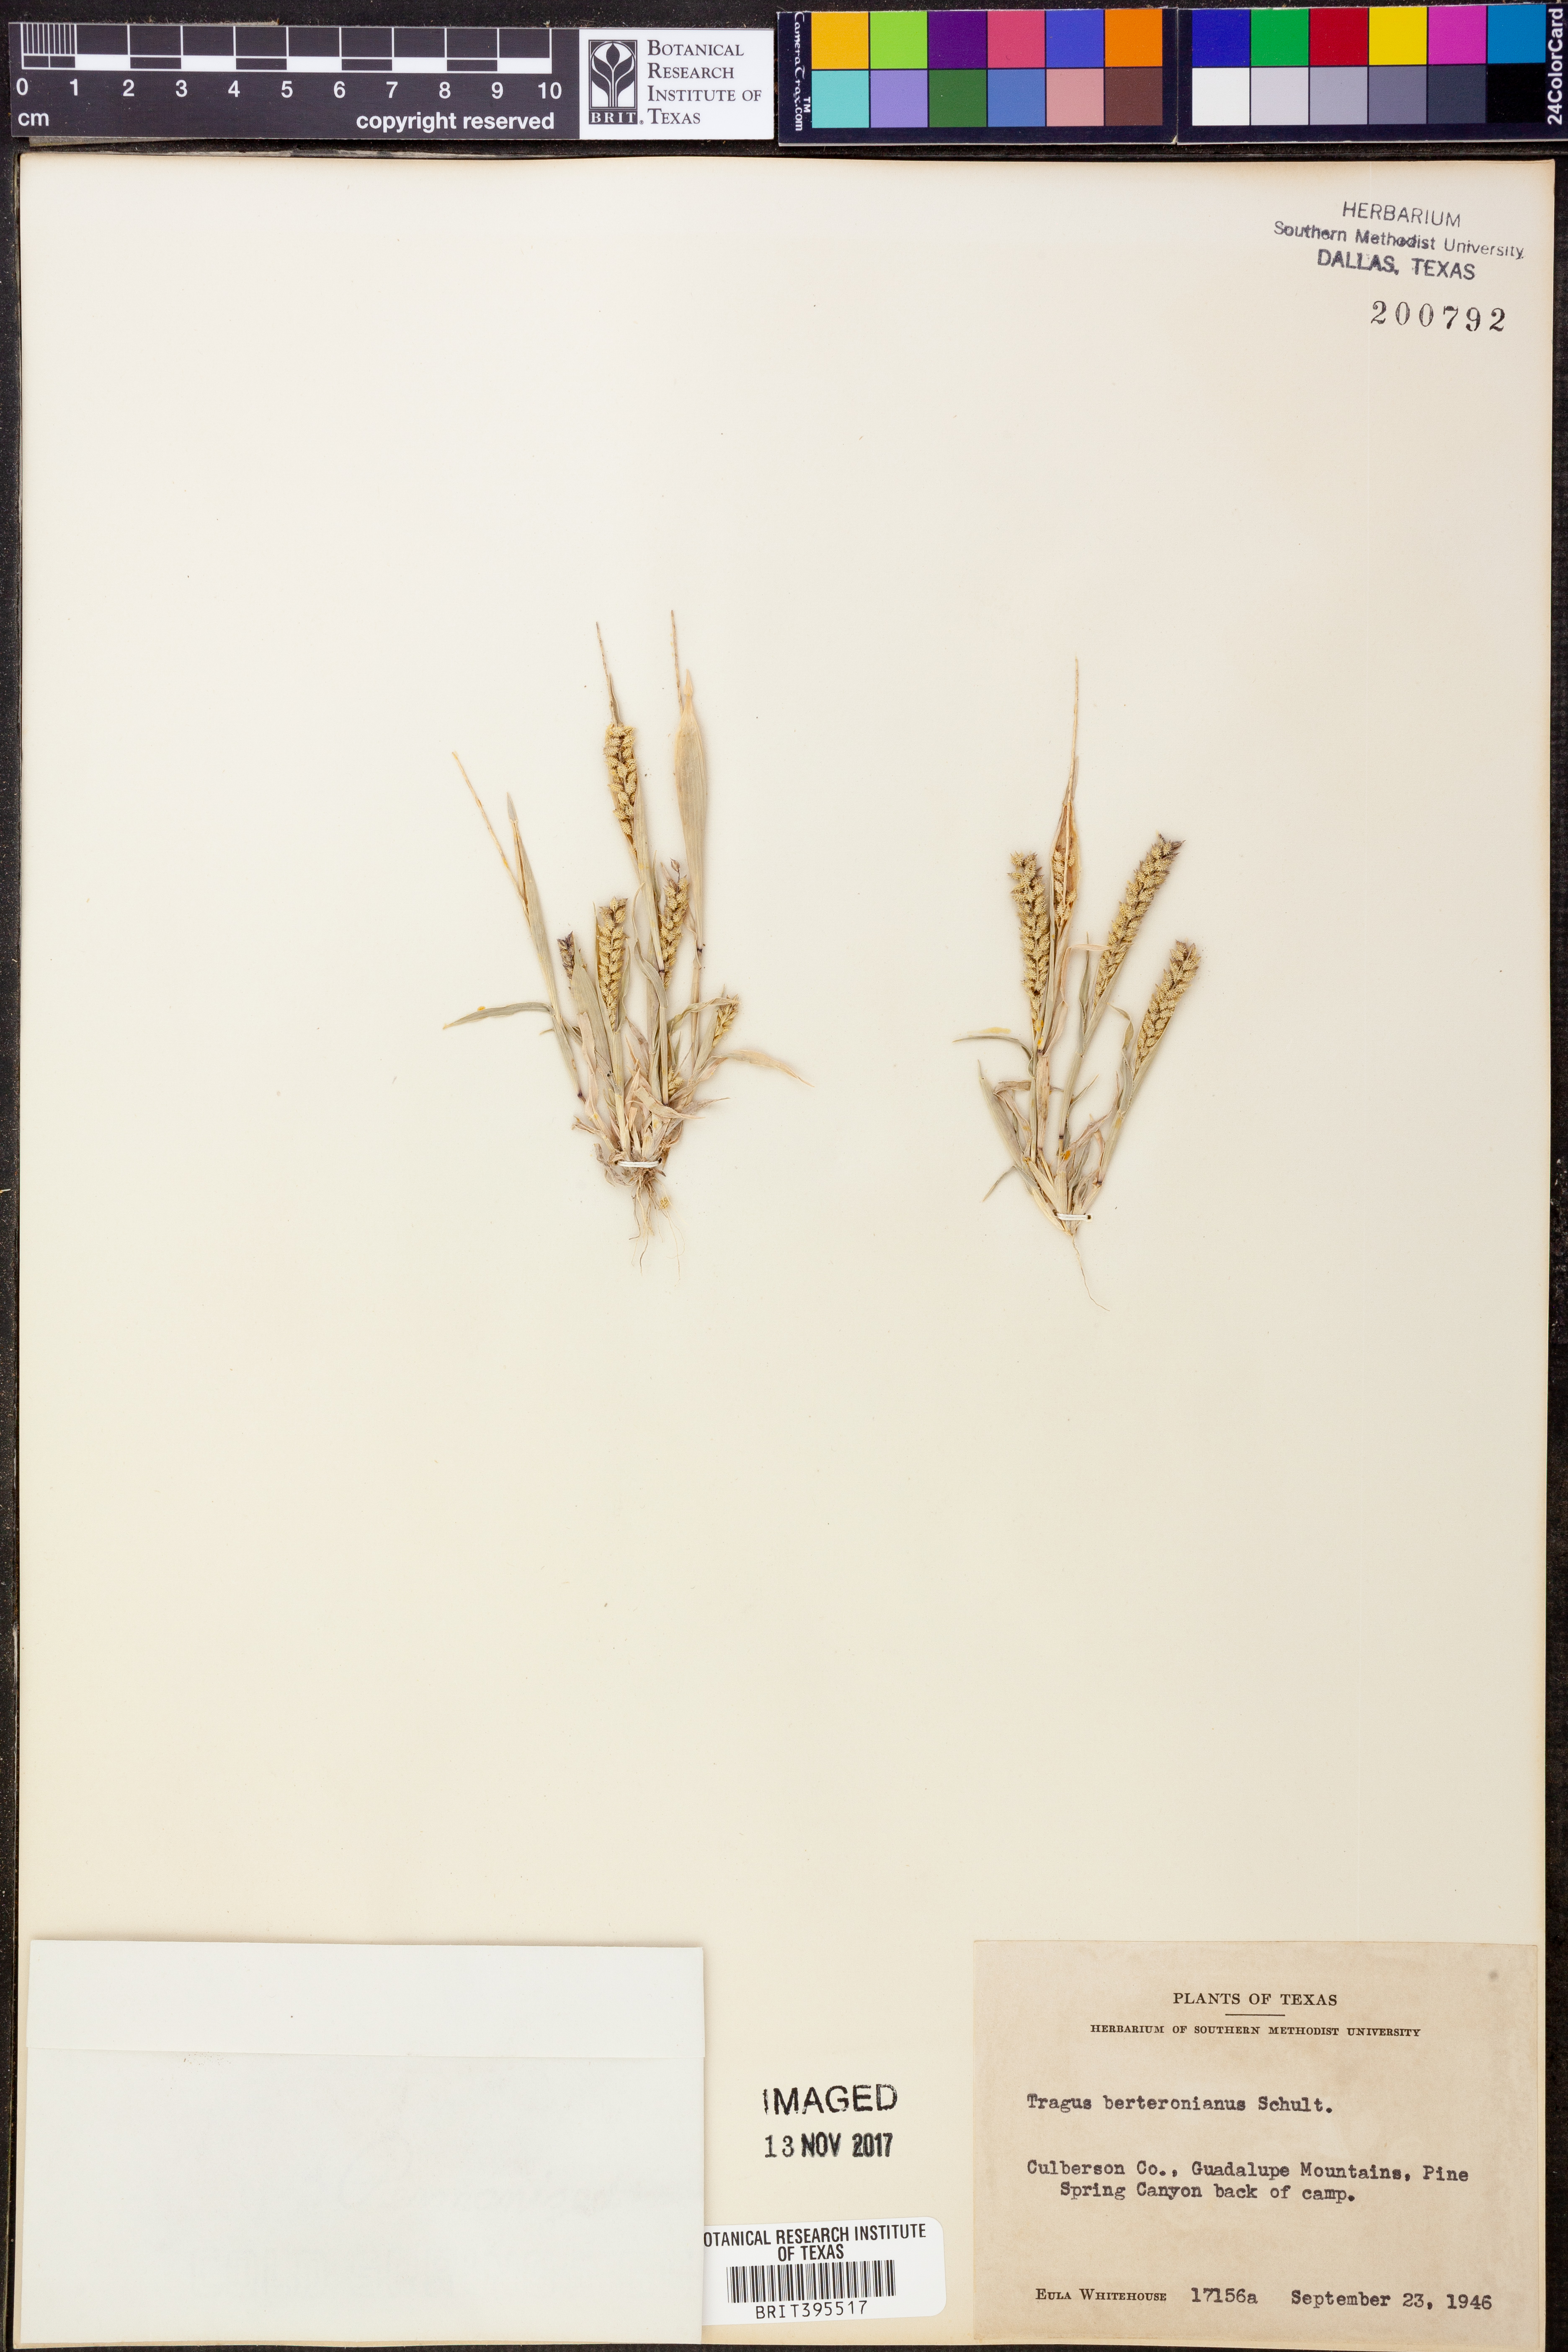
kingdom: Plantae
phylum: Tracheophyta
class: Liliopsida
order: Poales
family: Poaceae
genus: Tragus
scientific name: Tragus berteronianus
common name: African bur-grass
